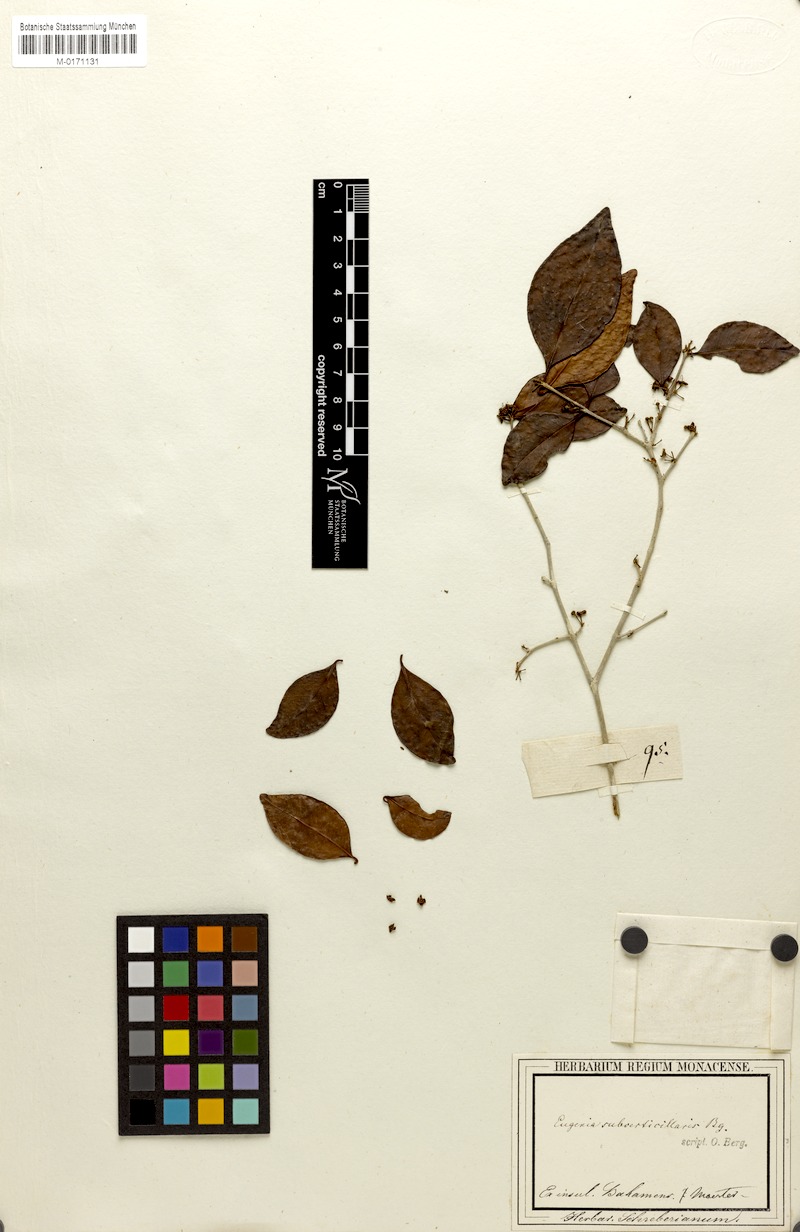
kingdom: Plantae
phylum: Tracheophyta
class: Magnoliopsida
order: Myrtales
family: Myrtaceae
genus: Eugenia
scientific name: Eugenia axillaris
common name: Choaky berry
